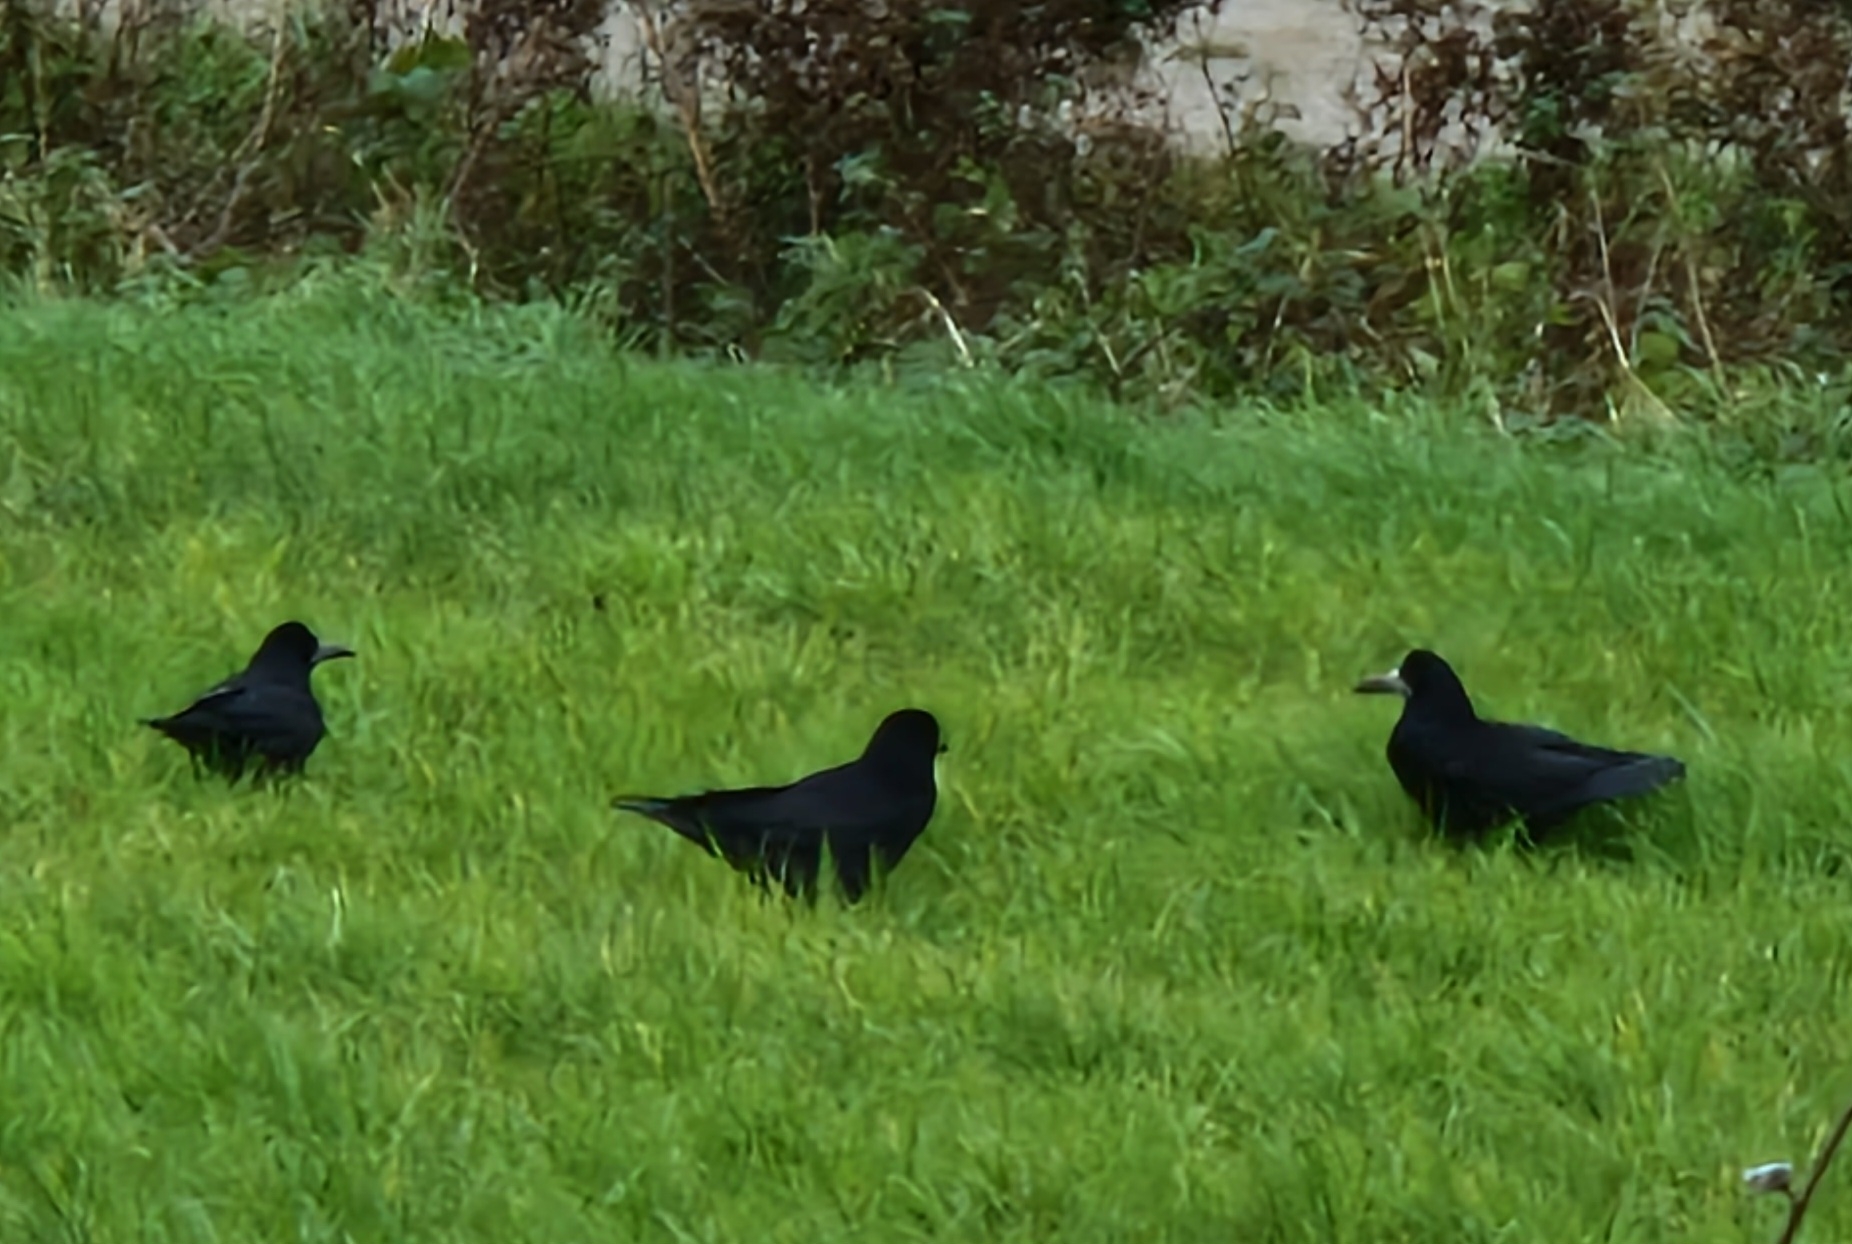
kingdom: Animalia
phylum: Chordata
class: Aves
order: Passeriformes
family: Corvidae
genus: Corvus
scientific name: Corvus frugilegus
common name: Råge
